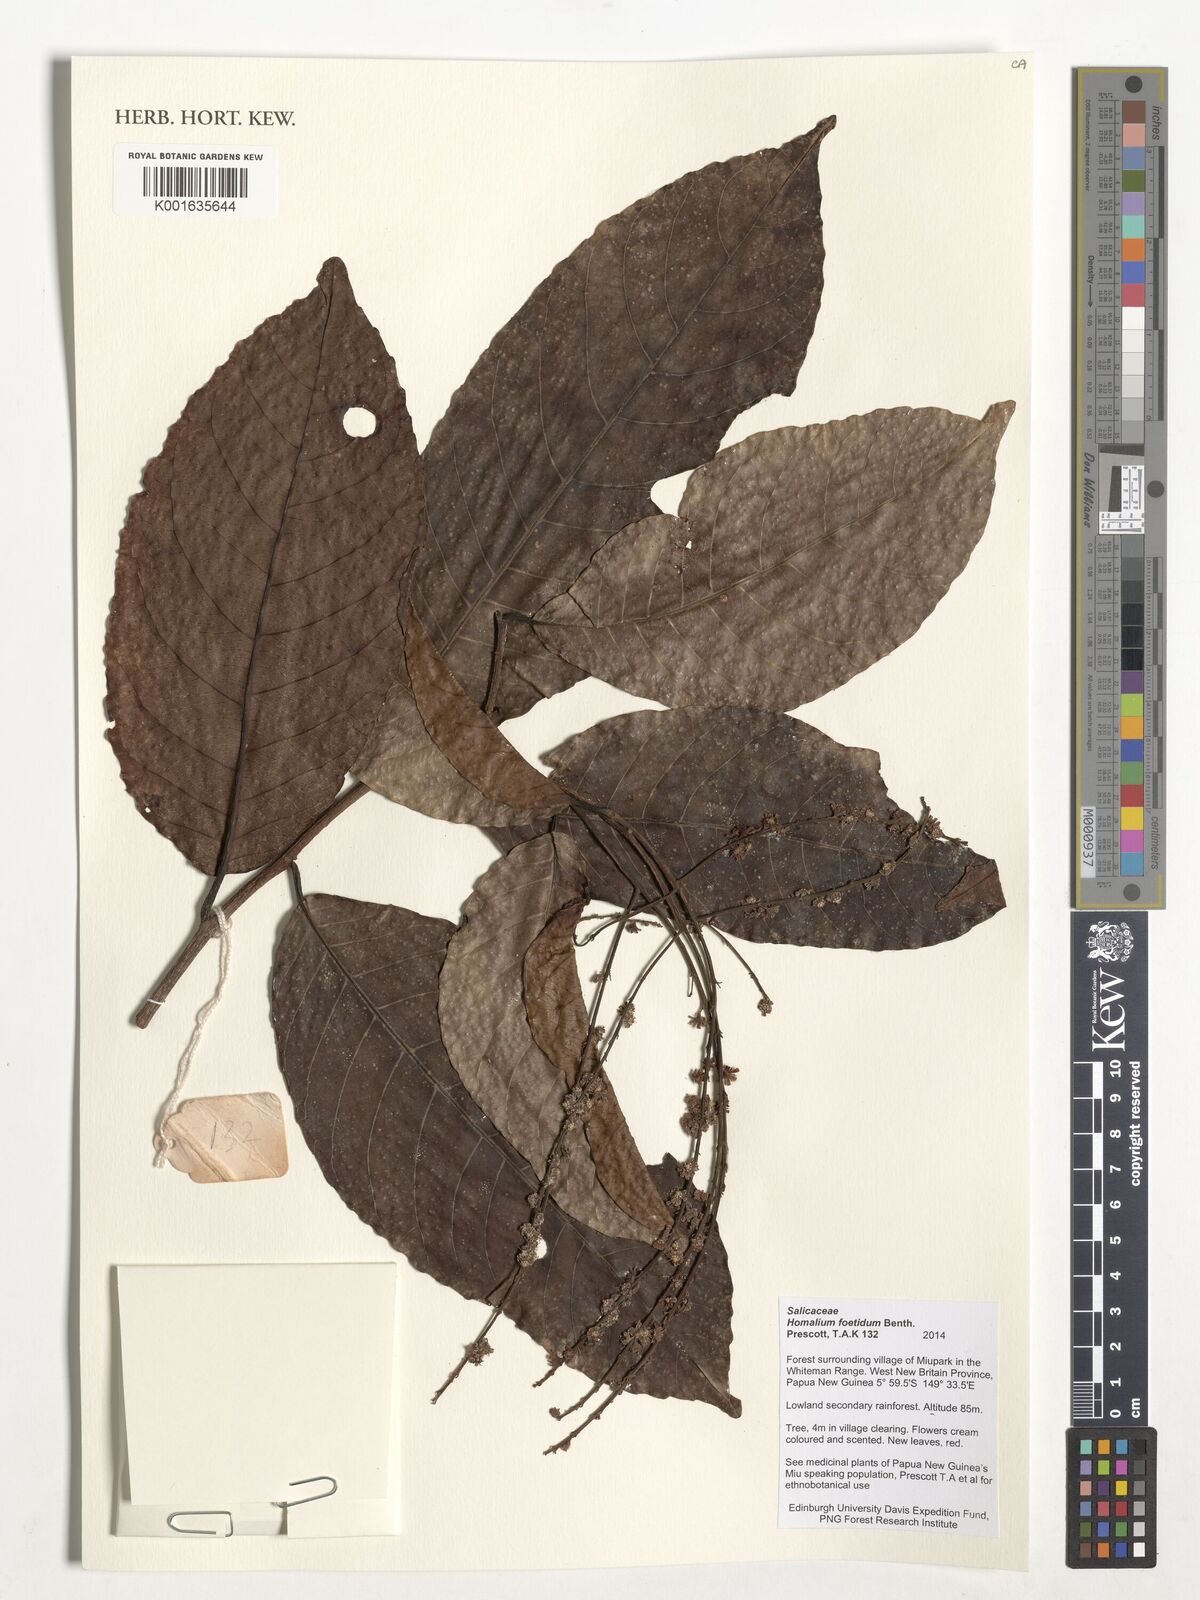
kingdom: Plantae
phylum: Tracheophyta
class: Magnoliopsida
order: Malpighiales
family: Salicaceae
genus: Homalium
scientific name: Homalium foetidum
